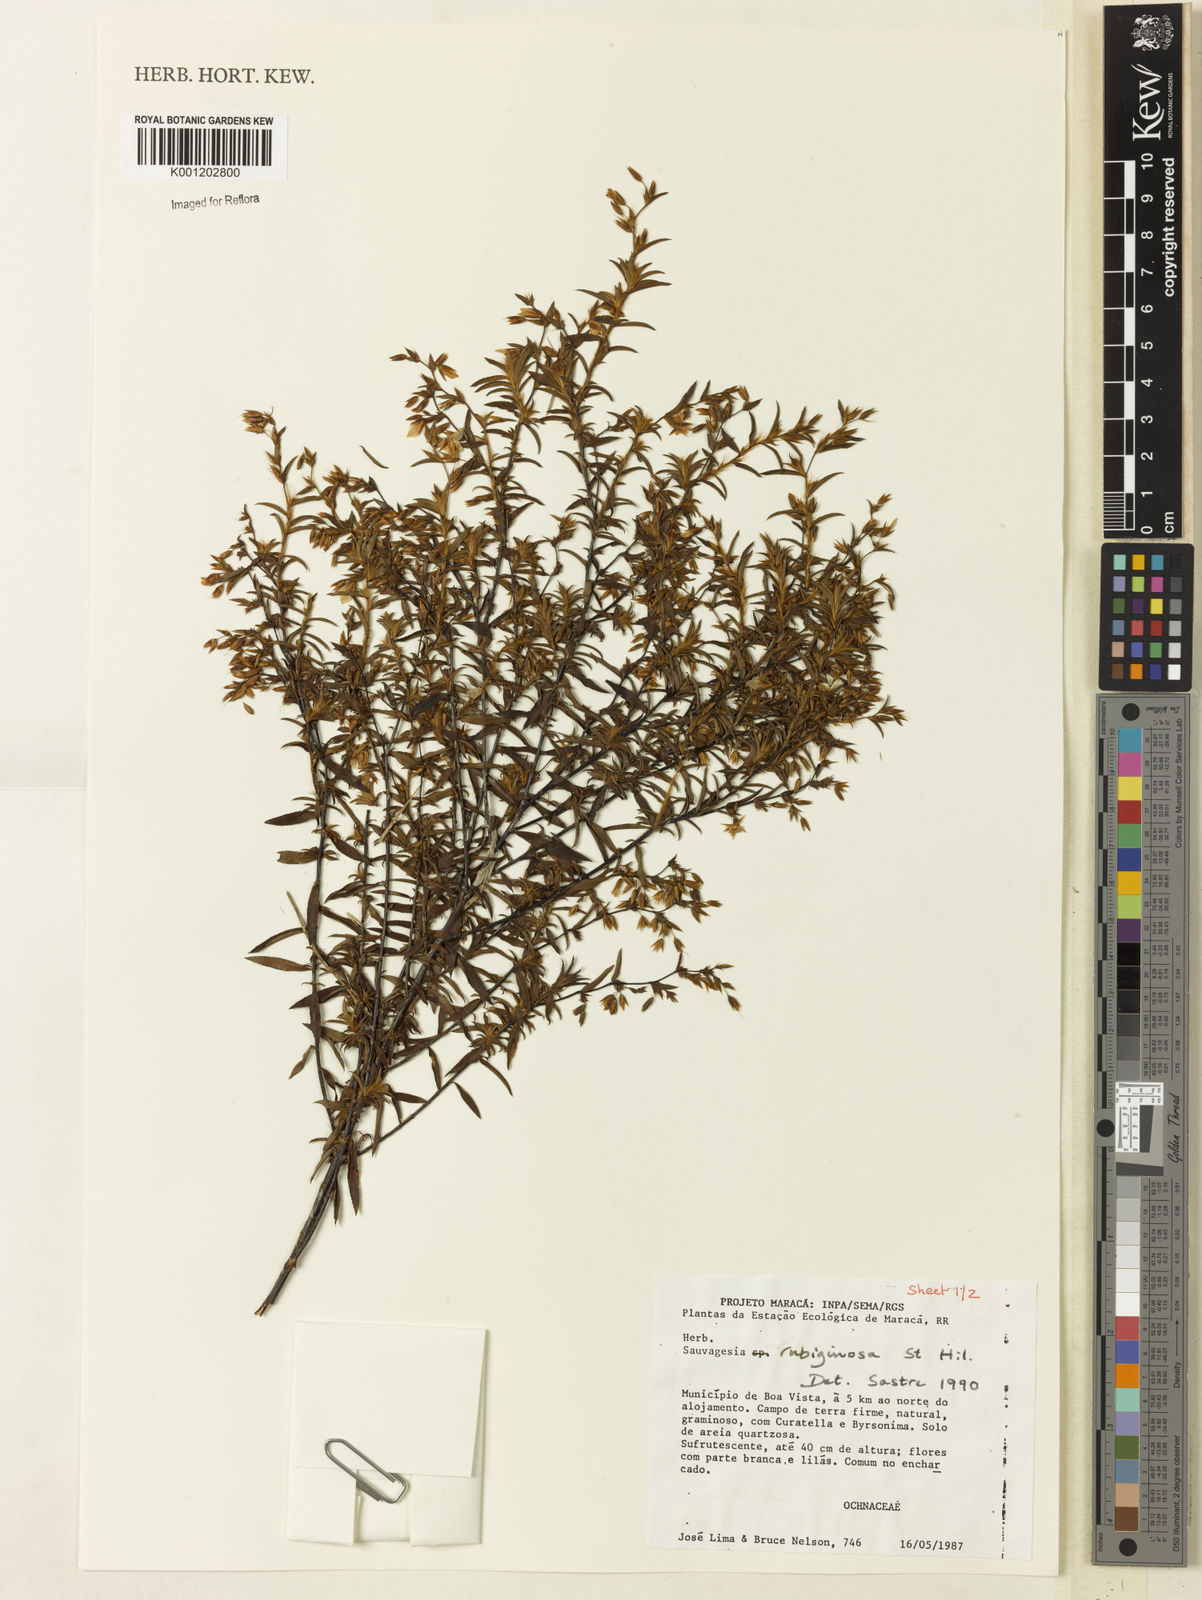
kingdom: Plantae
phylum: Tracheophyta
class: Magnoliopsida
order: Malpighiales
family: Ochnaceae
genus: Sauvagesia
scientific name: Sauvagesia rubiginosa
